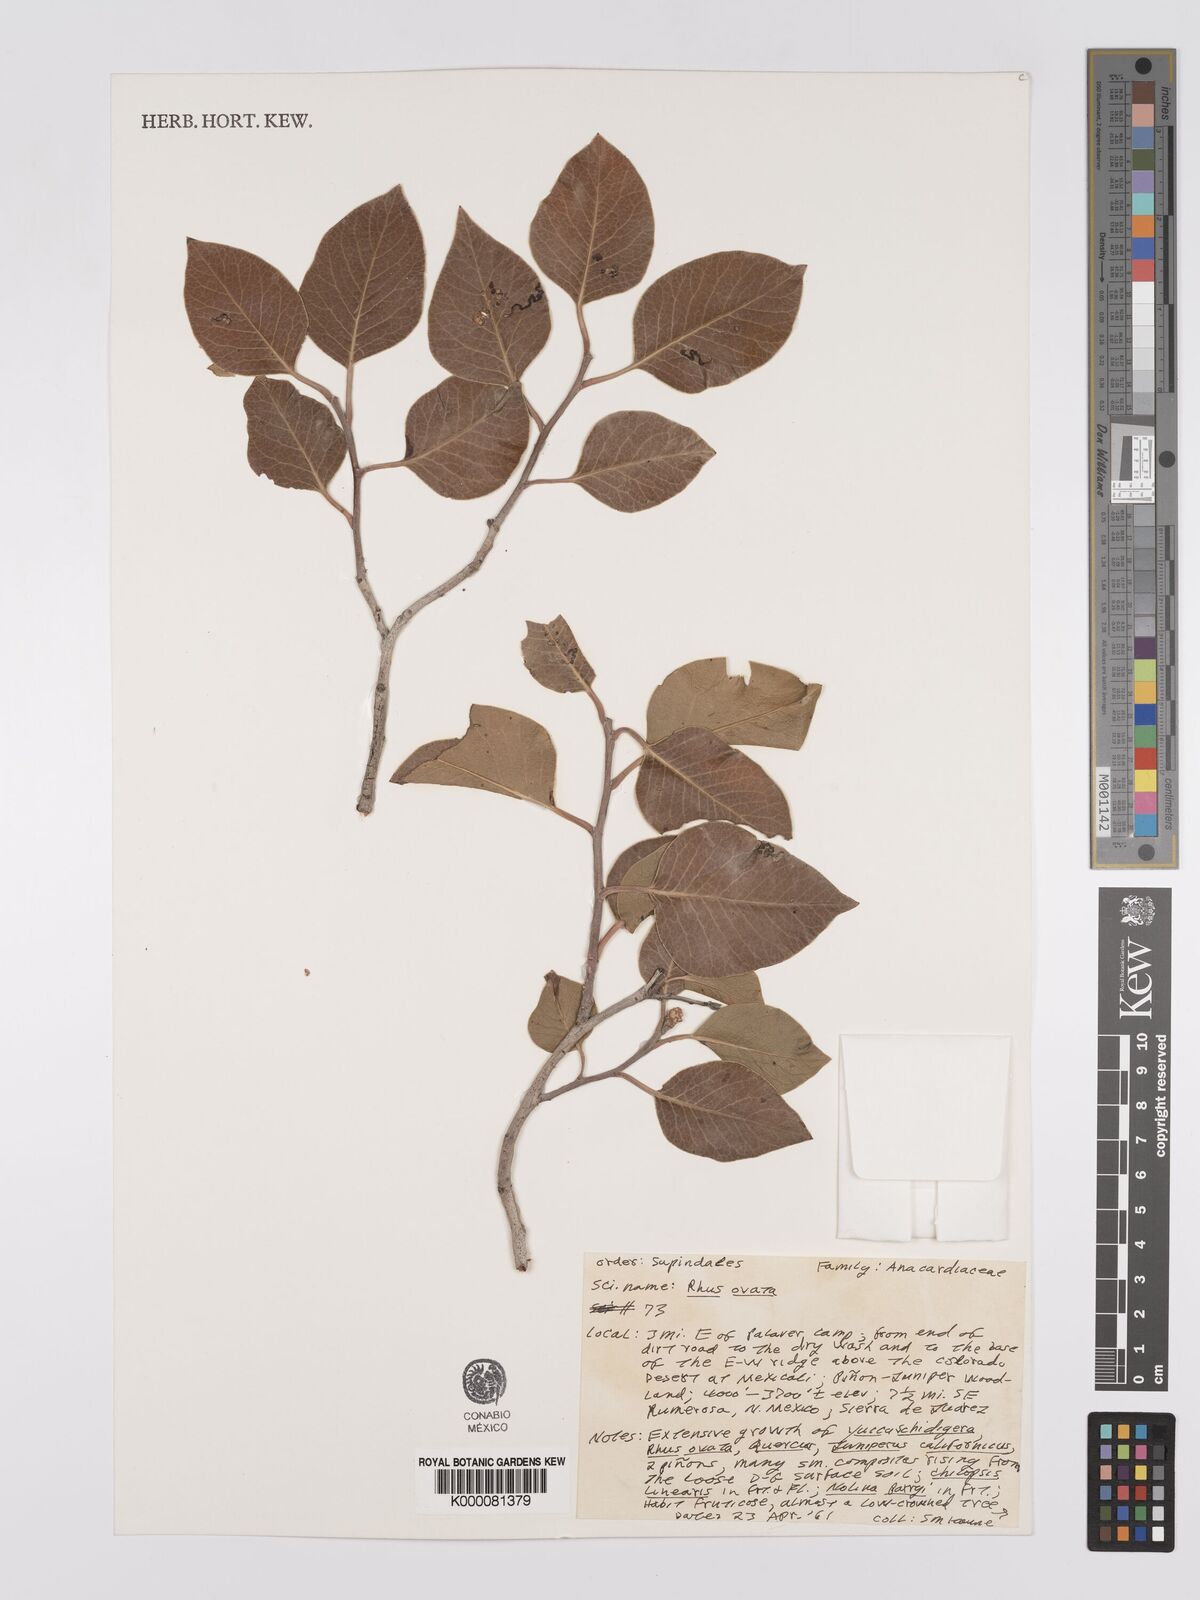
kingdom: Plantae
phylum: Tracheophyta
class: Magnoliopsida
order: Sapindales
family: Anacardiaceae
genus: Rhus
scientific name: Rhus ovata
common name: Sugar sumac
